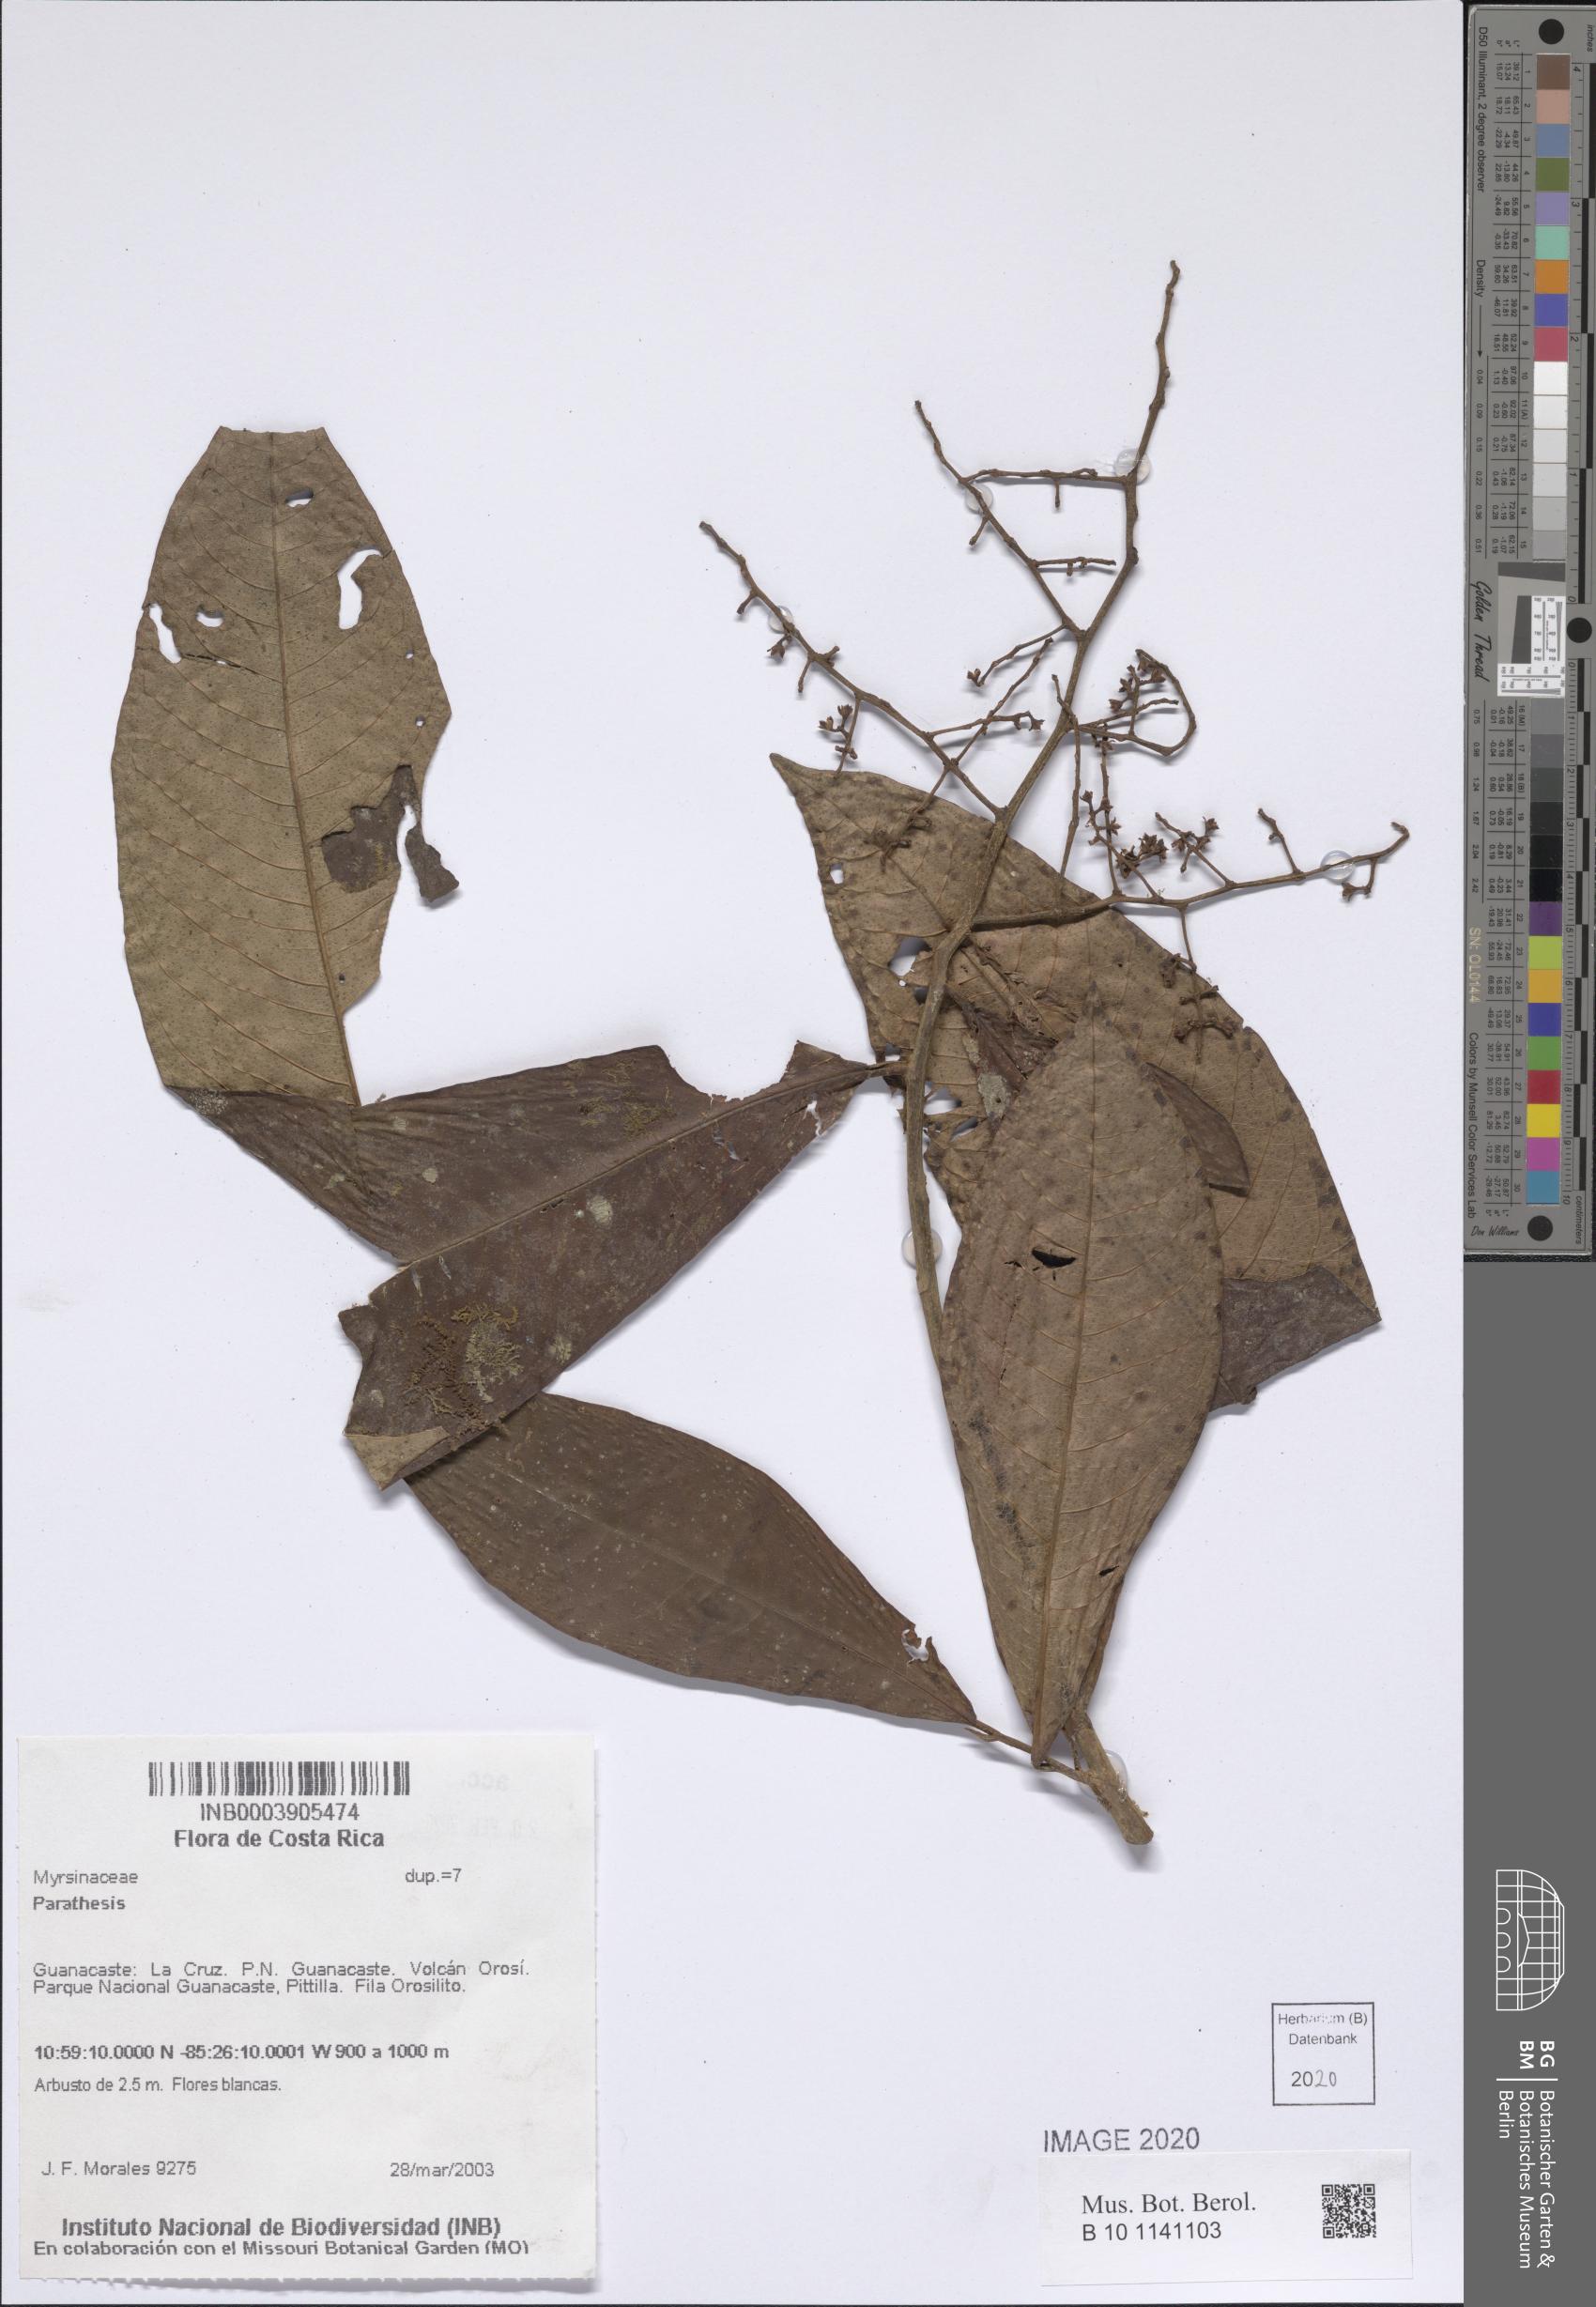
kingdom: Plantae
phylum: Tracheophyta
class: Magnoliopsida
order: Ericales
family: Primulaceae
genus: Parathesis
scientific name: Parathesis
